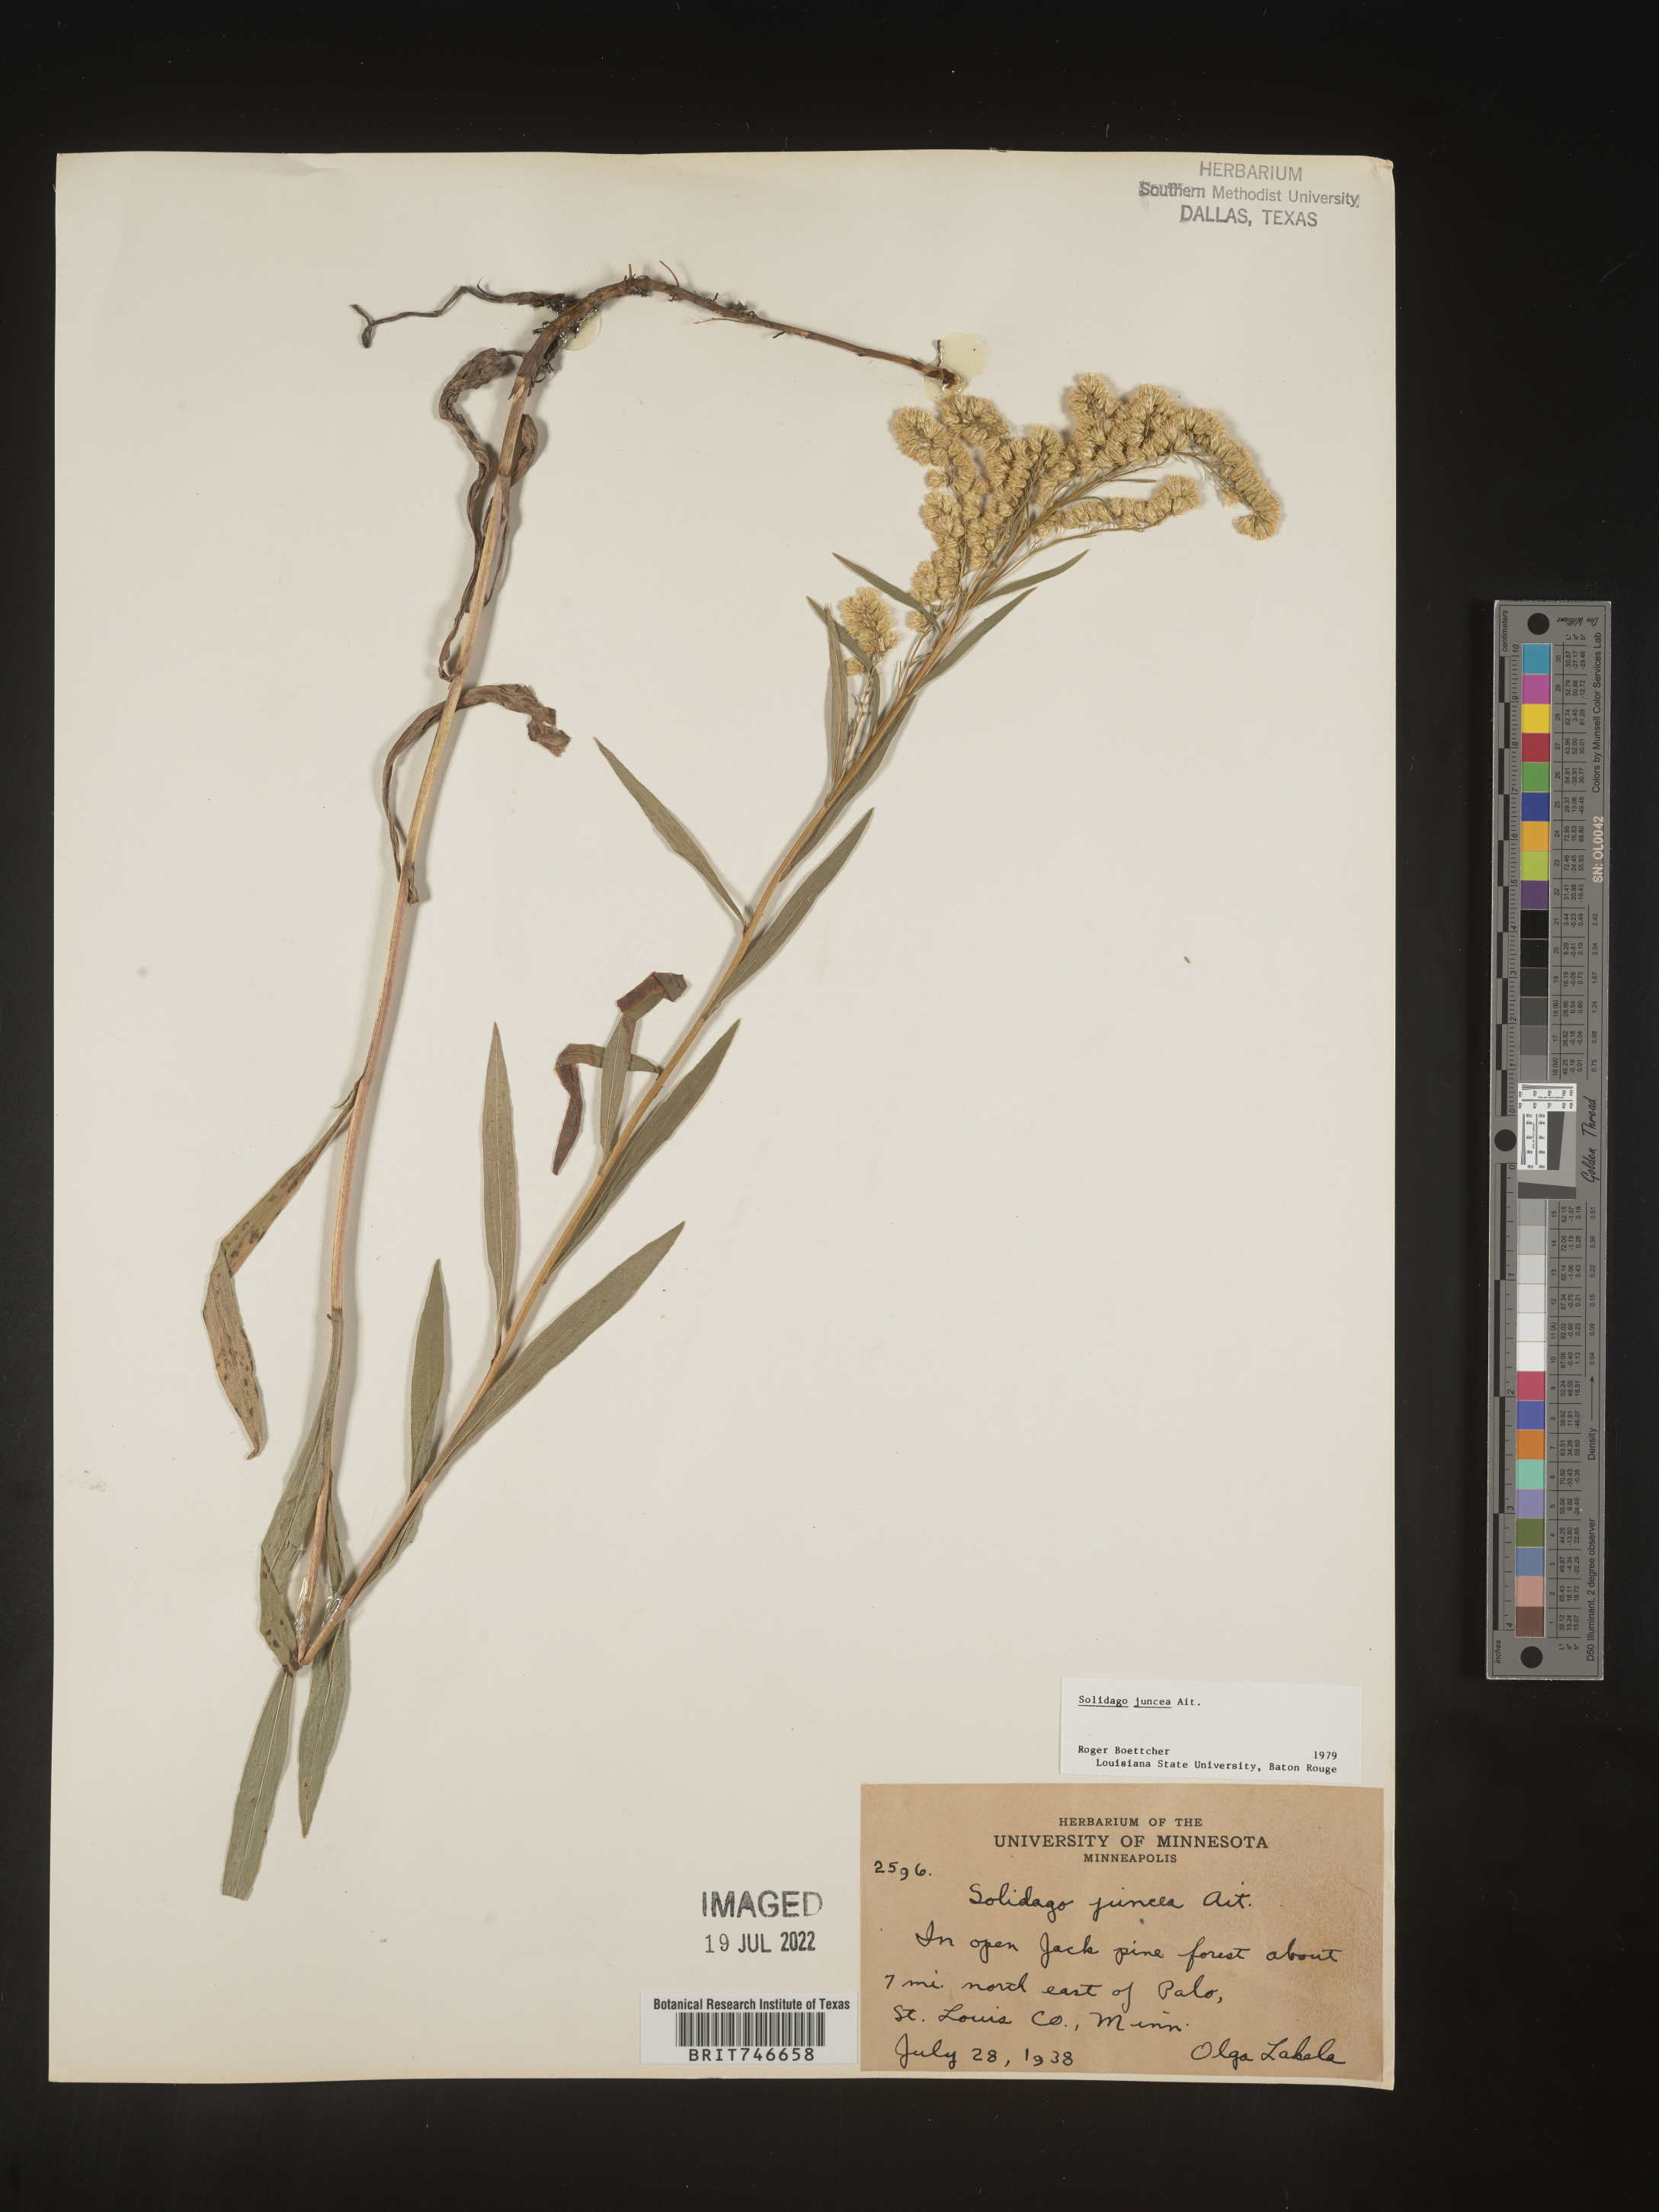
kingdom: Plantae
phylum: Tracheophyta
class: Magnoliopsida
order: Asterales
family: Asteraceae
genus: Solidago
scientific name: Solidago juncea
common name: Early goldenrod
